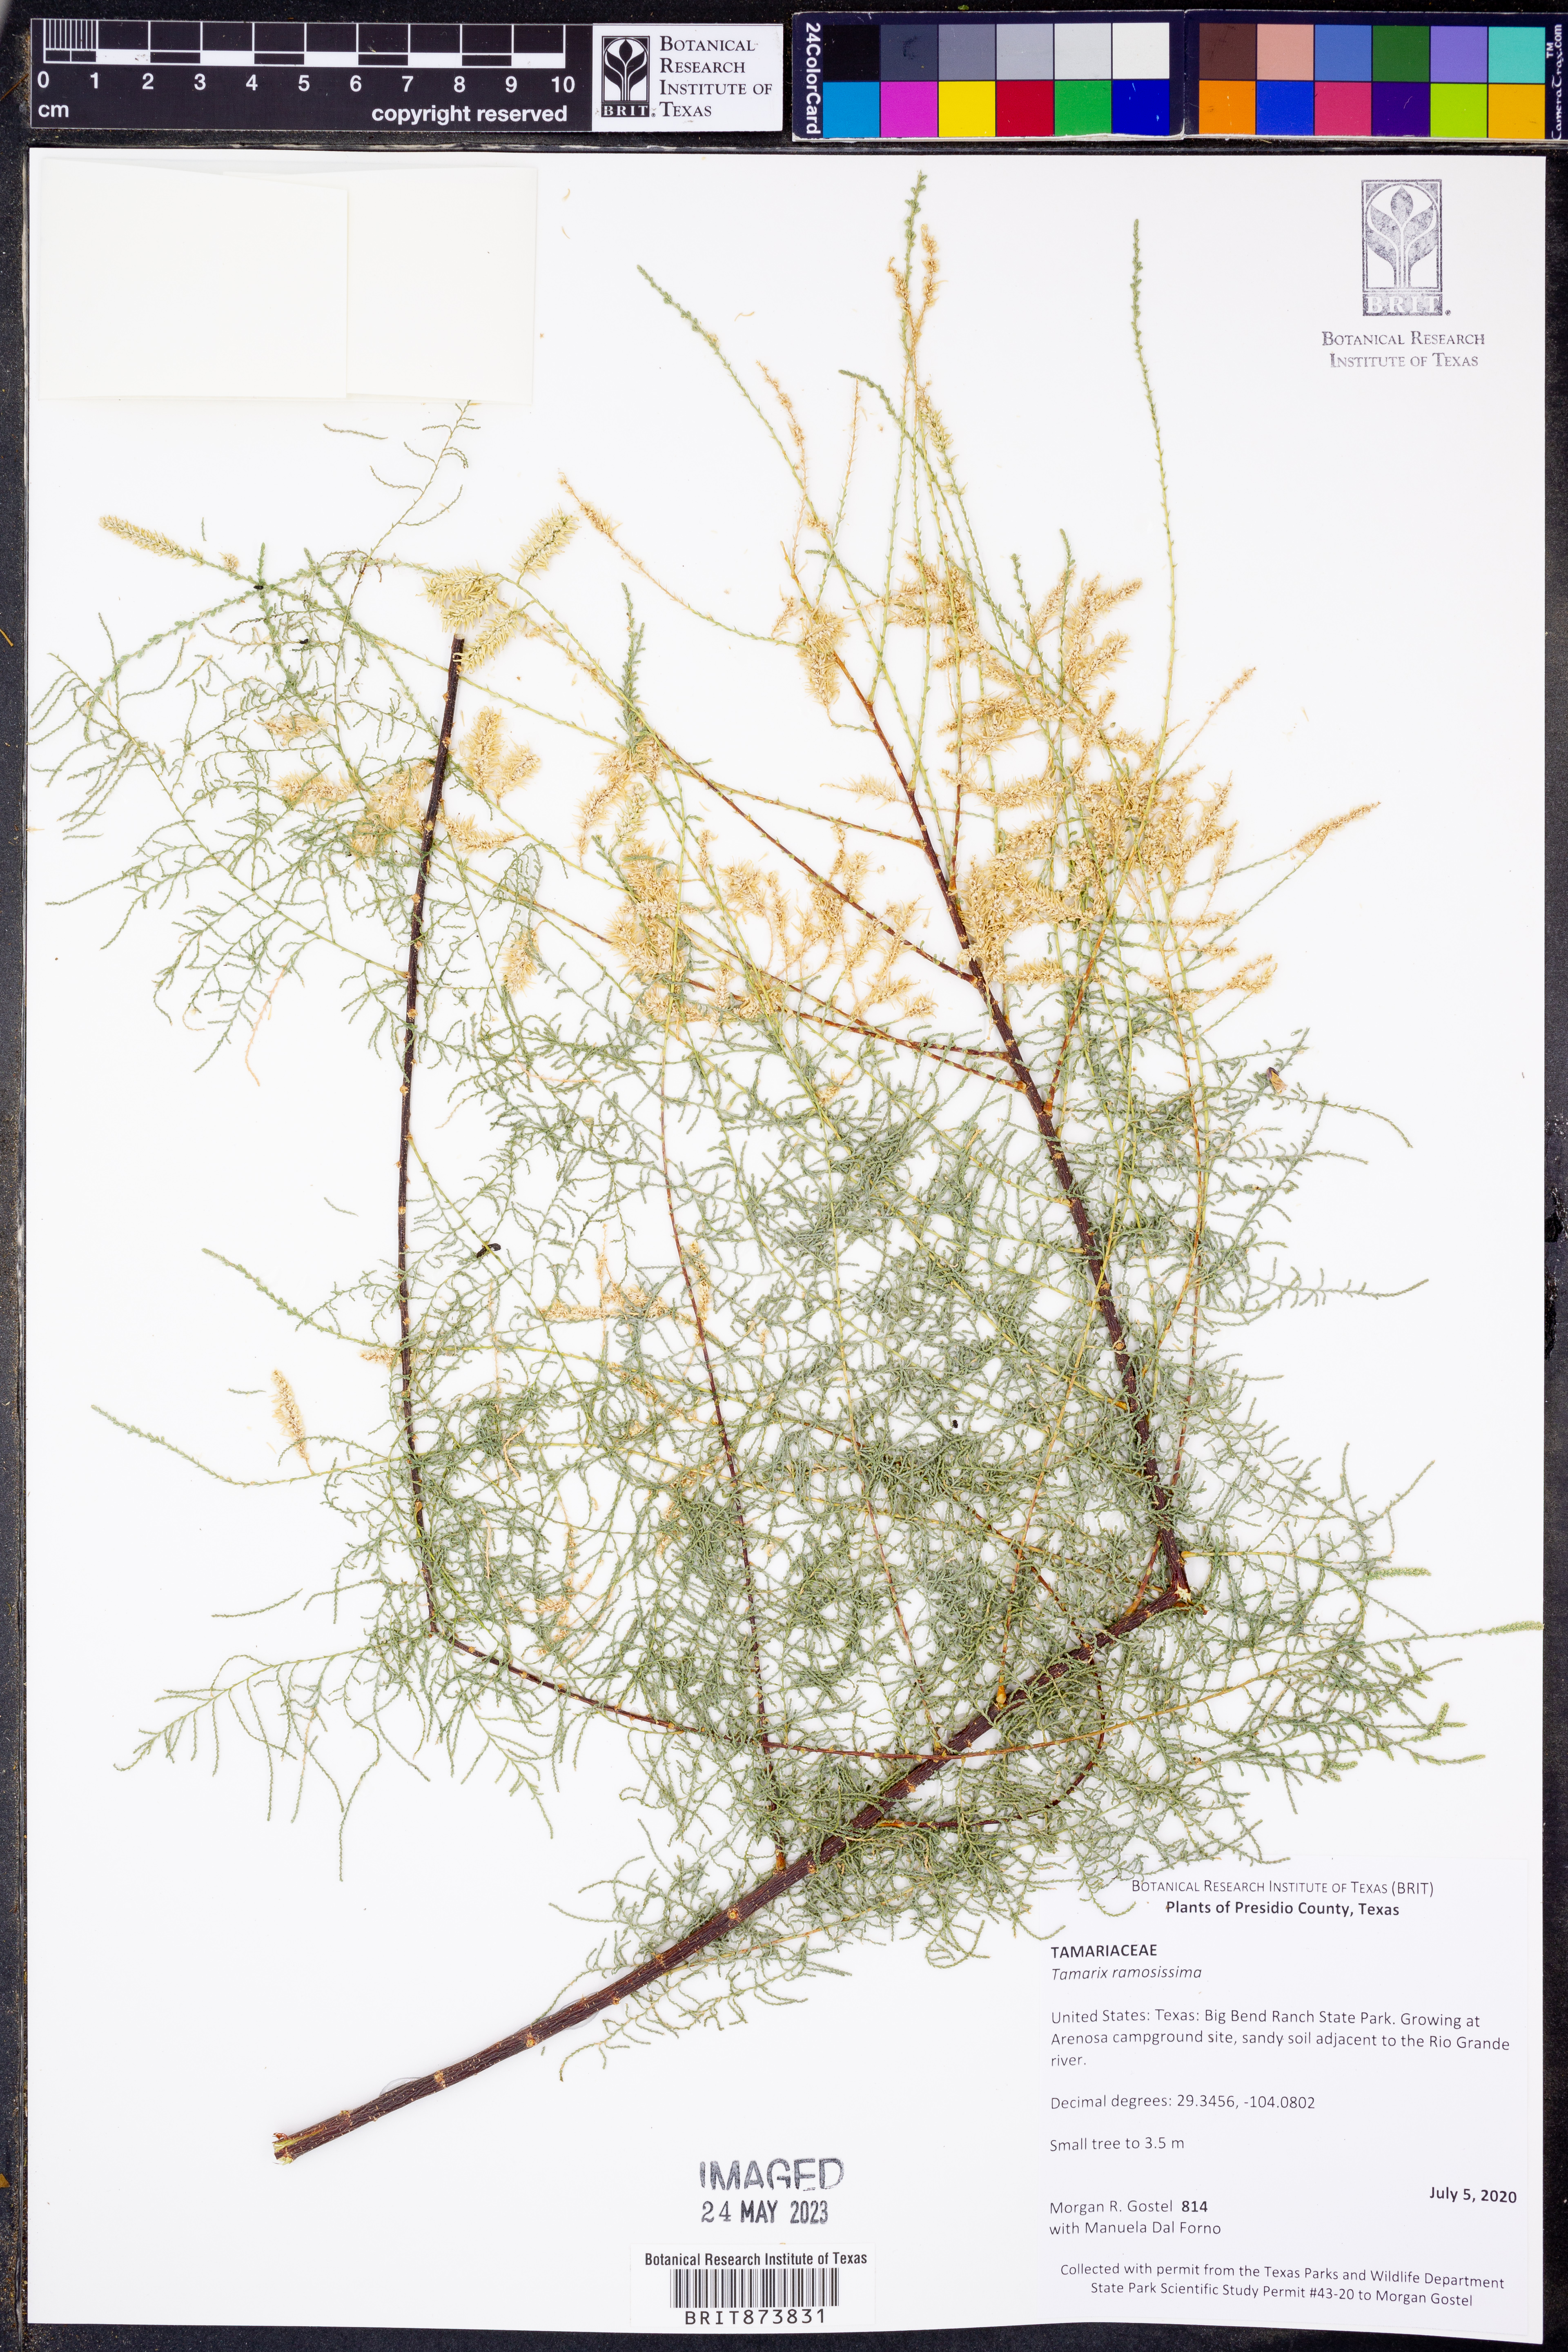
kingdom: Plantae
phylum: Tracheophyta
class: Magnoliopsida
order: Caryophyllales
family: Tamaricaceae
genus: Tamarix
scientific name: Tamarix ramosissima
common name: Pink tamarisk
